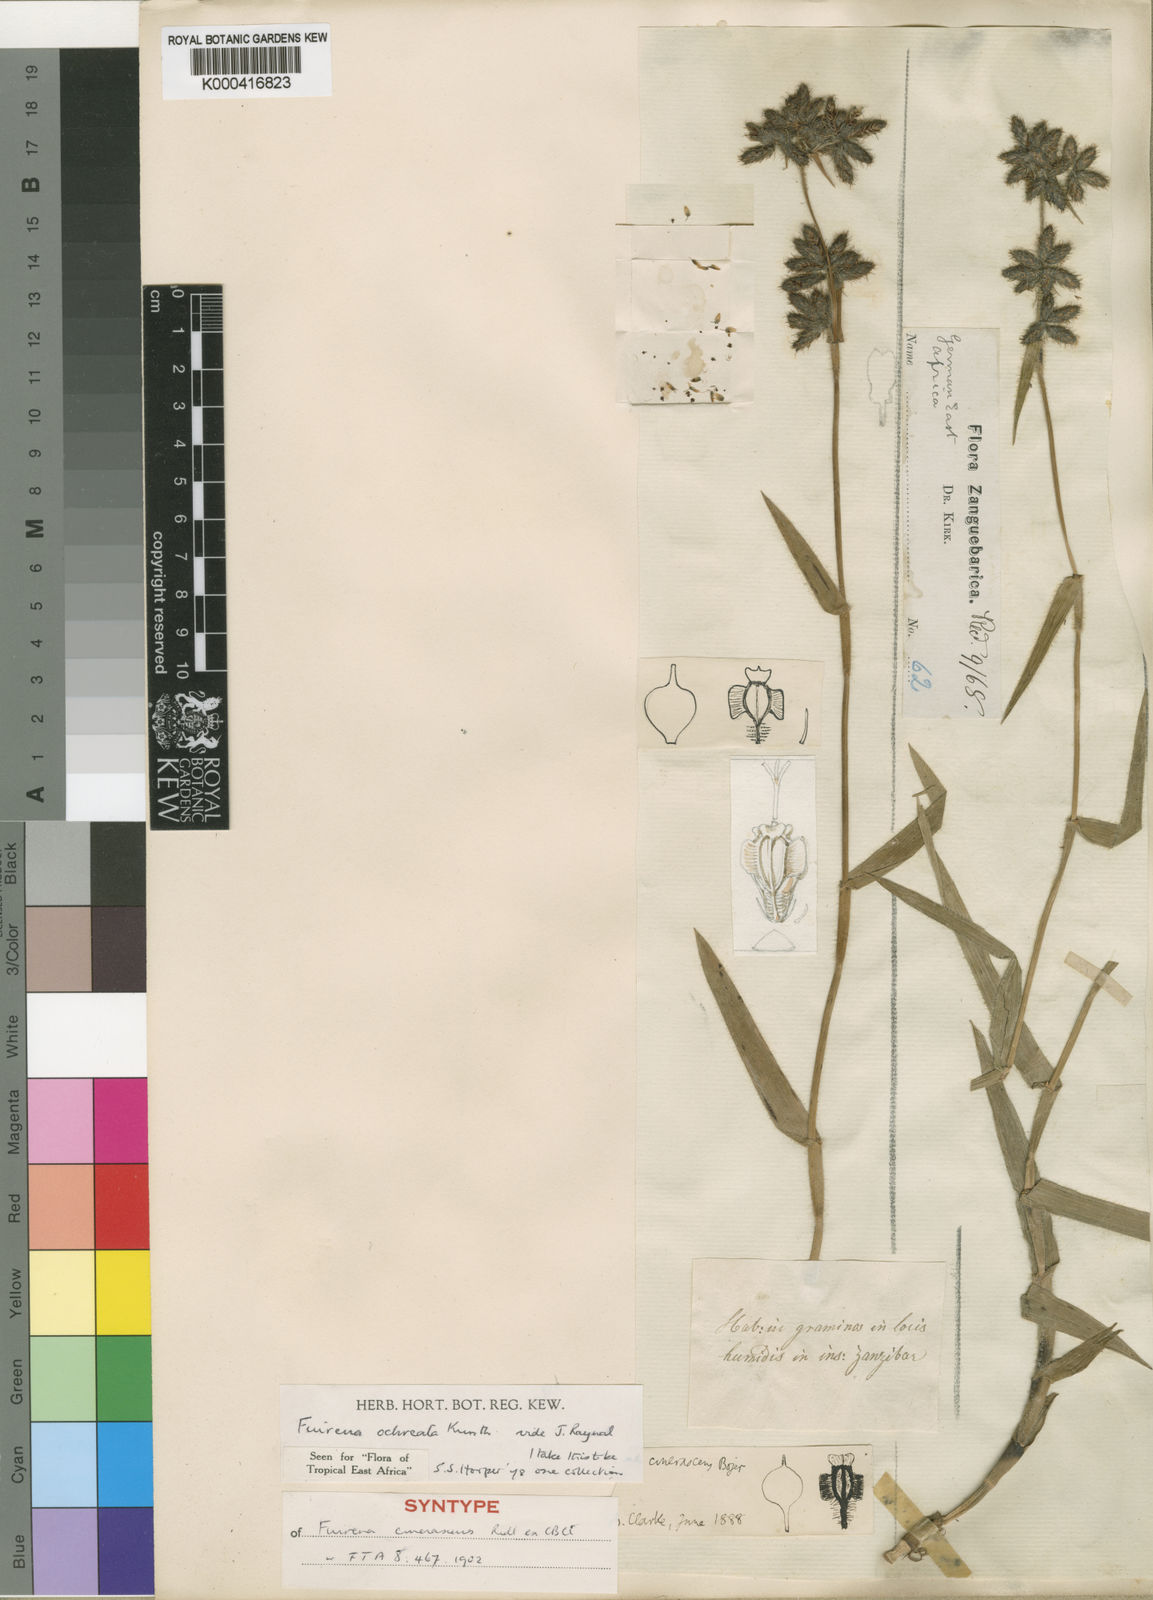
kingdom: Plantae
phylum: Tracheophyta
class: Liliopsida
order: Poales
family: Cyperaceae
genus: Fuirena
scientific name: Fuirena ochreata
